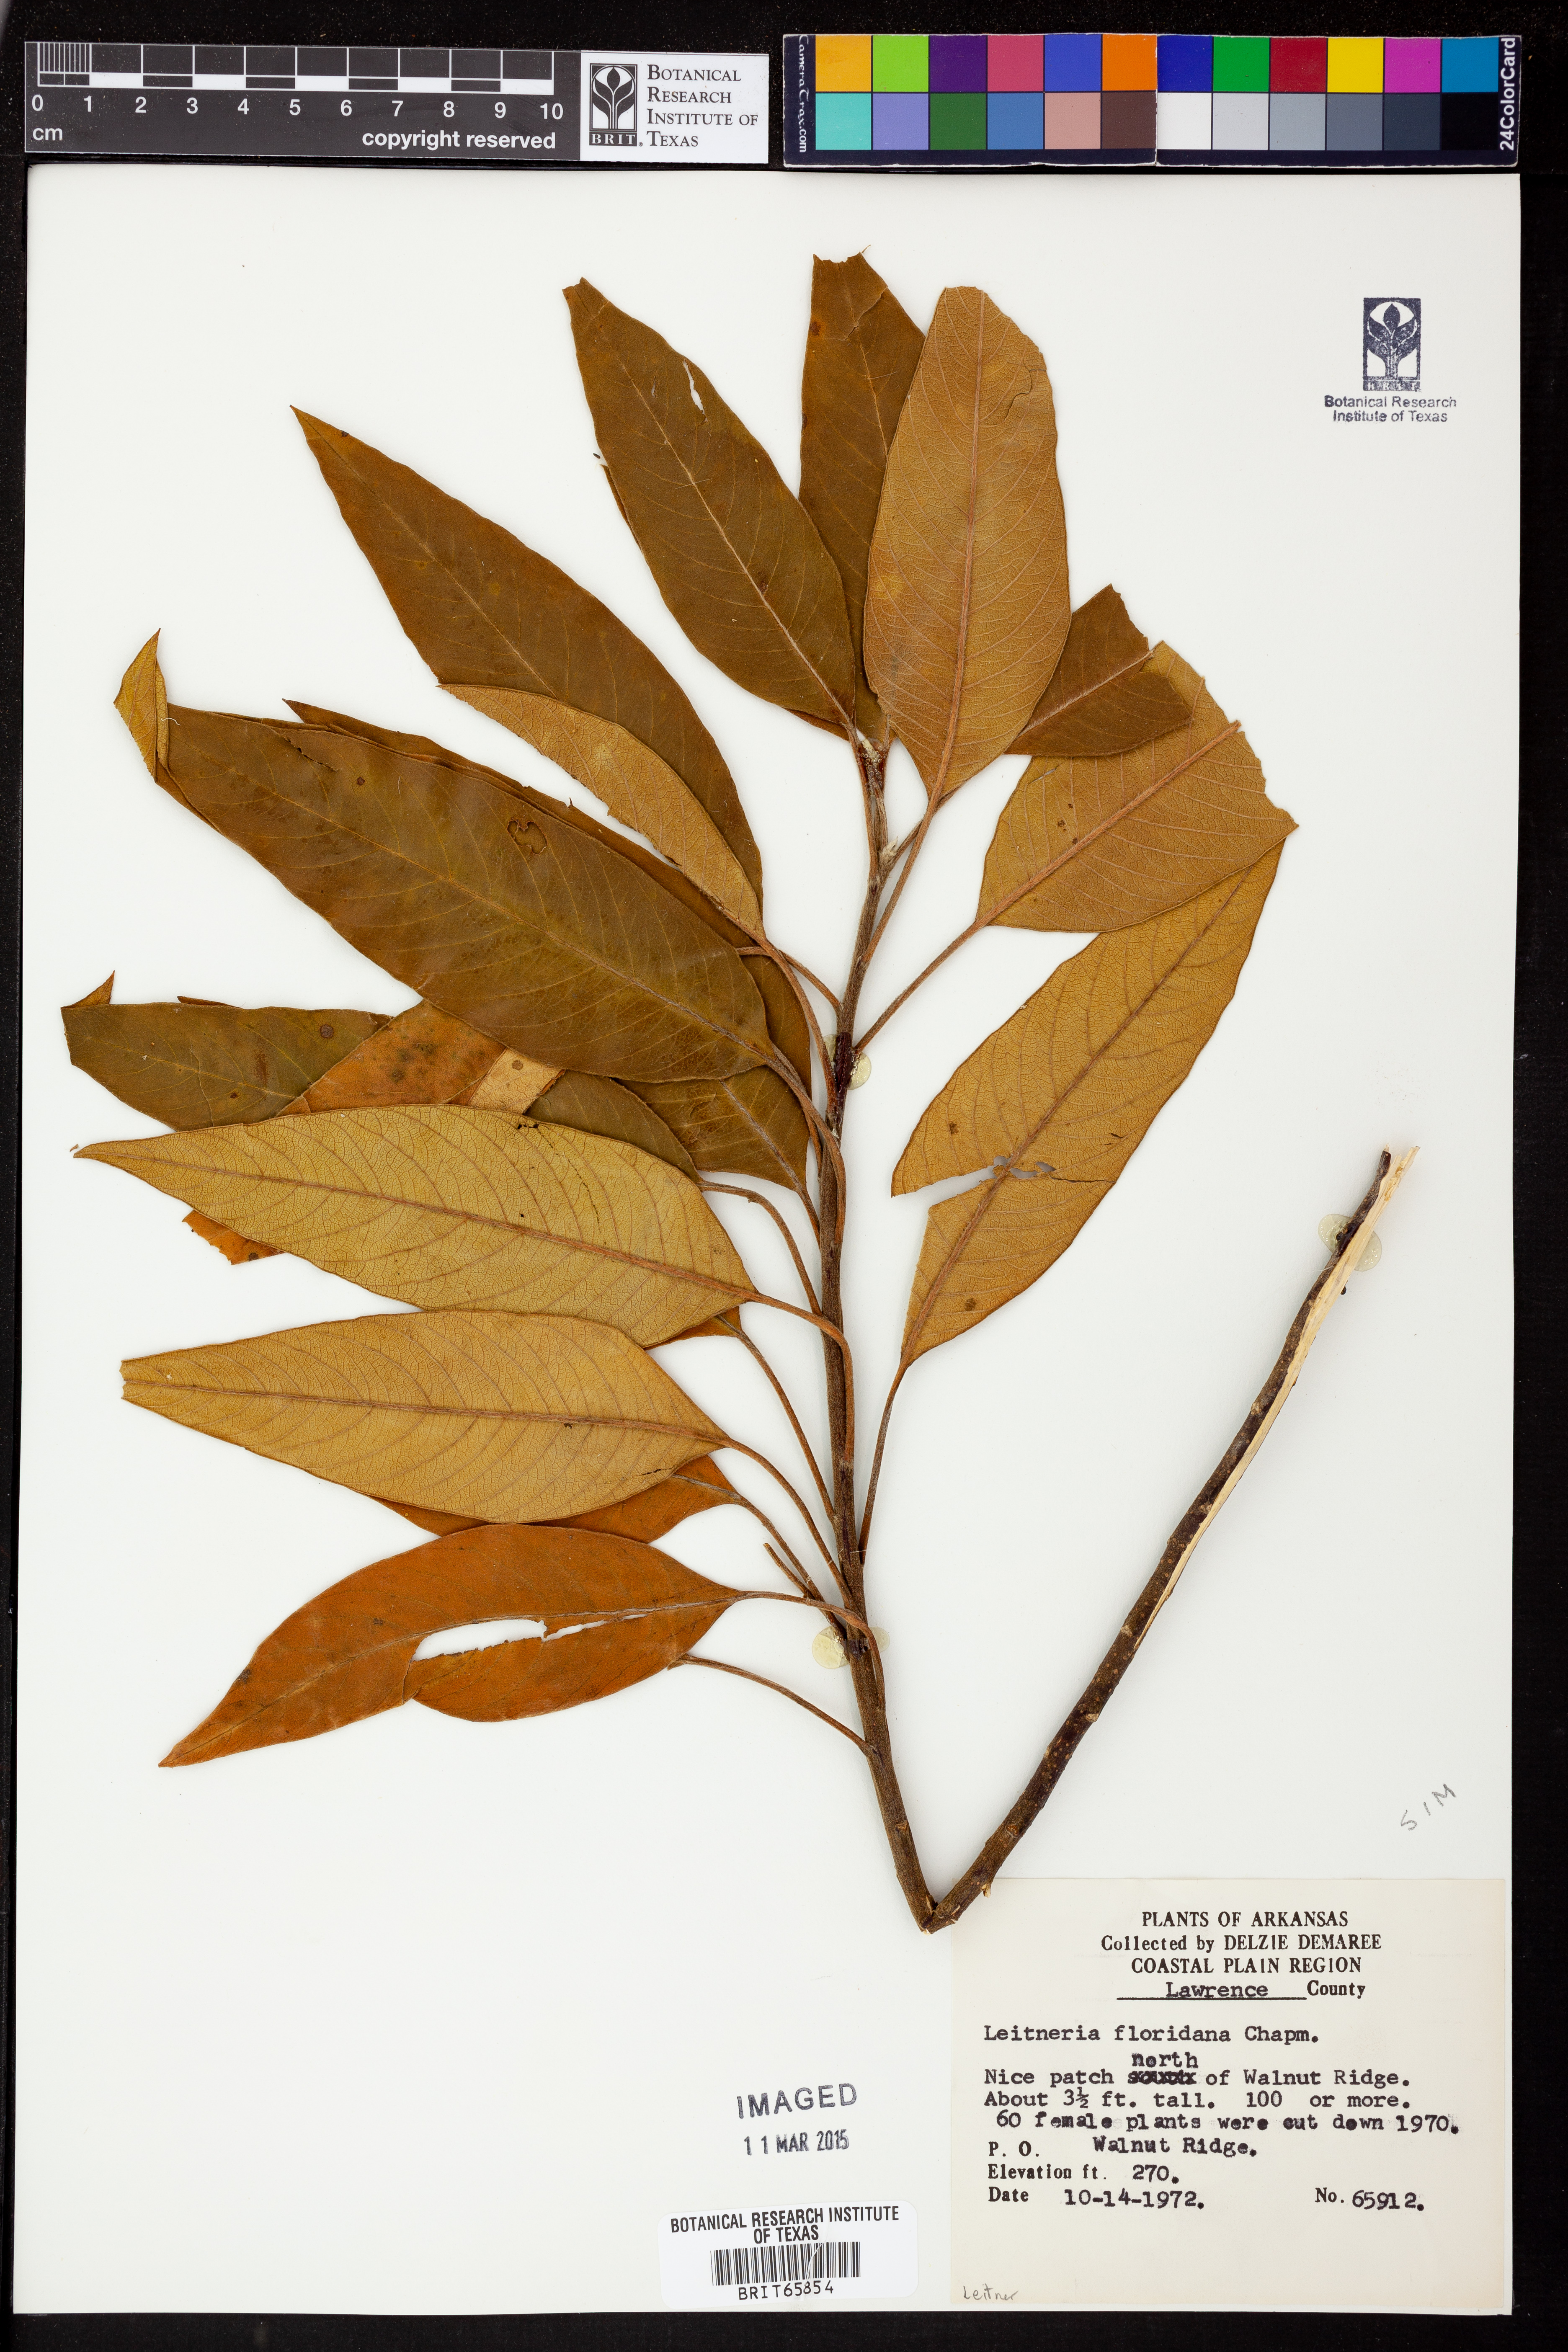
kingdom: Plantae
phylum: Tracheophyta
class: Magnoliopsida
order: Sapindales
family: Simaroubaceae
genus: Leitneria
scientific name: Leitneria floridana
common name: Corkwood
